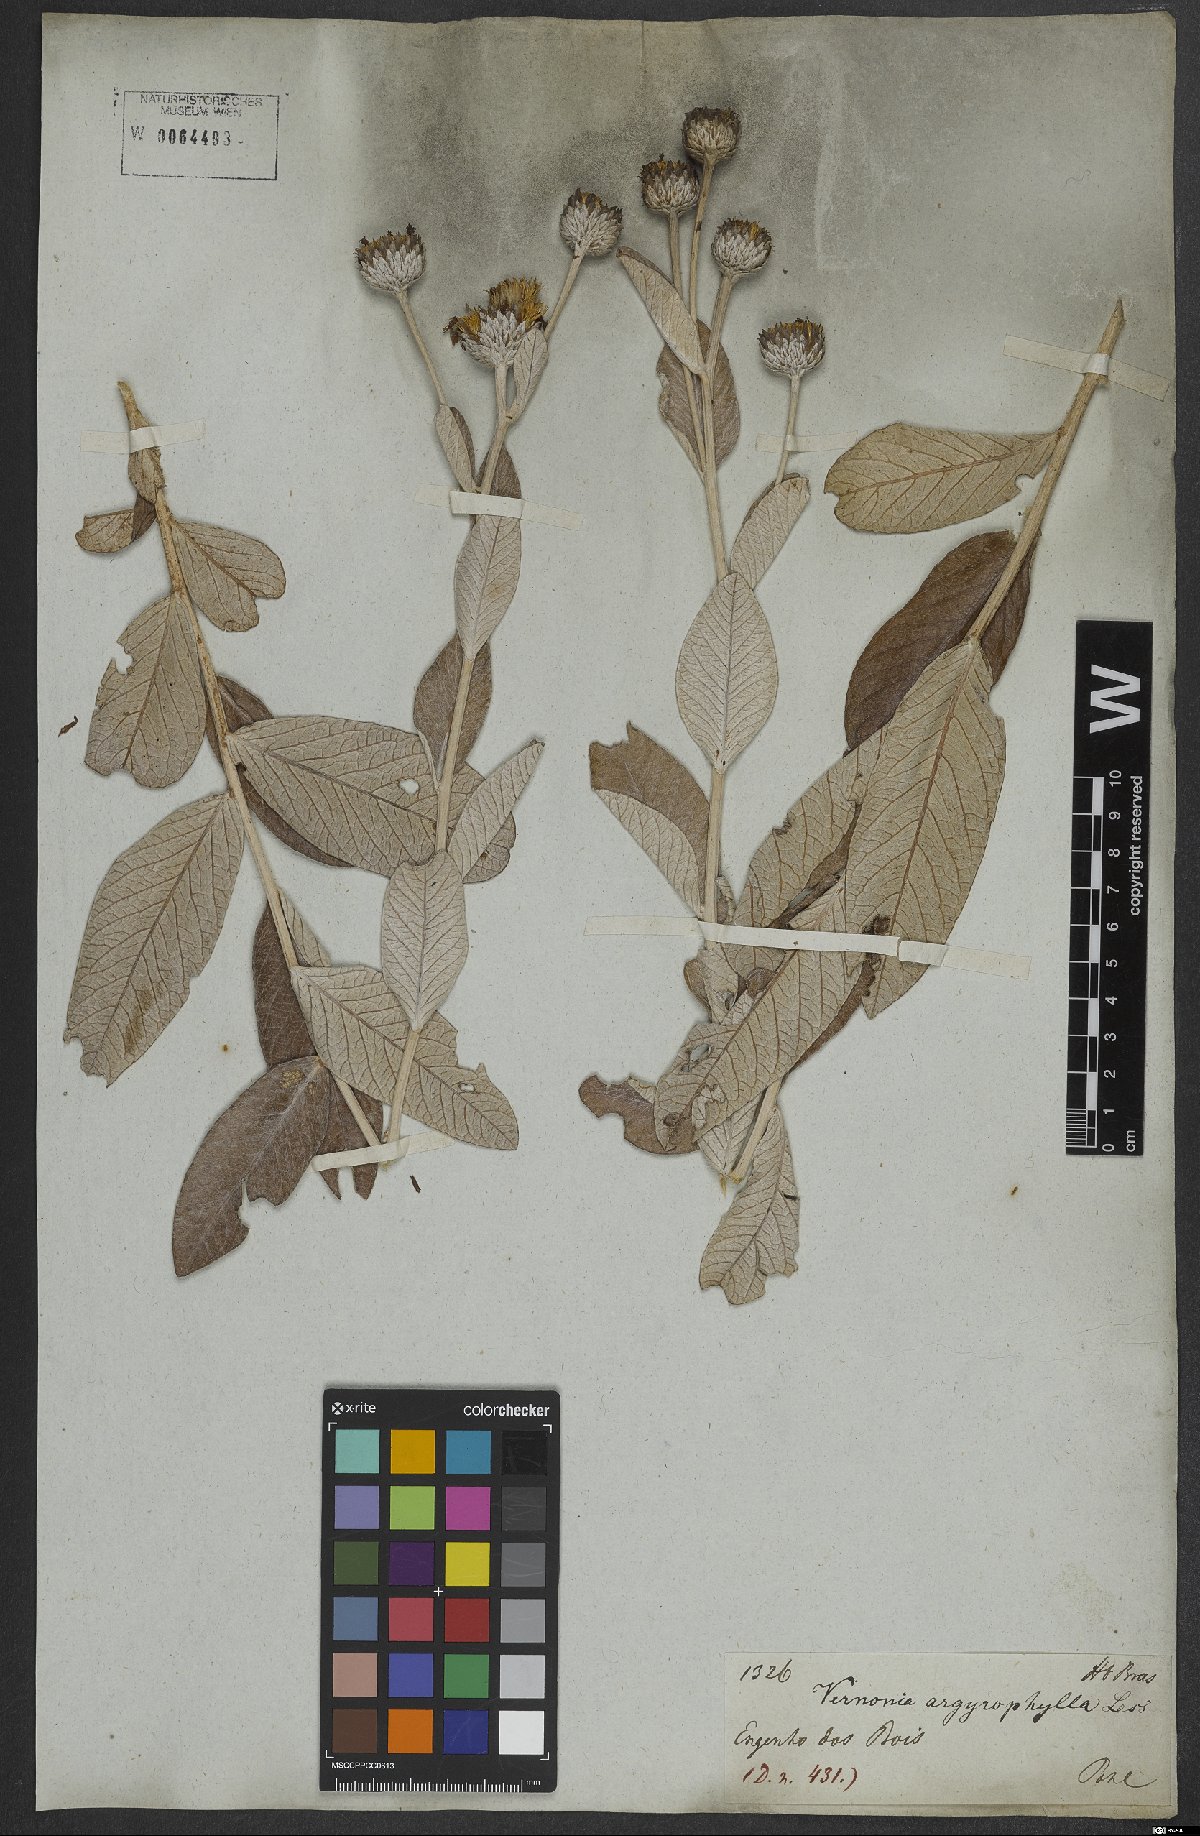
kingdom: Plantae
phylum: Tracheophyta
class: Magnoliopsida
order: Asterales
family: Asteraceae
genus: Lessingianthus
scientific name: Lessingianthus argyrophyllus
